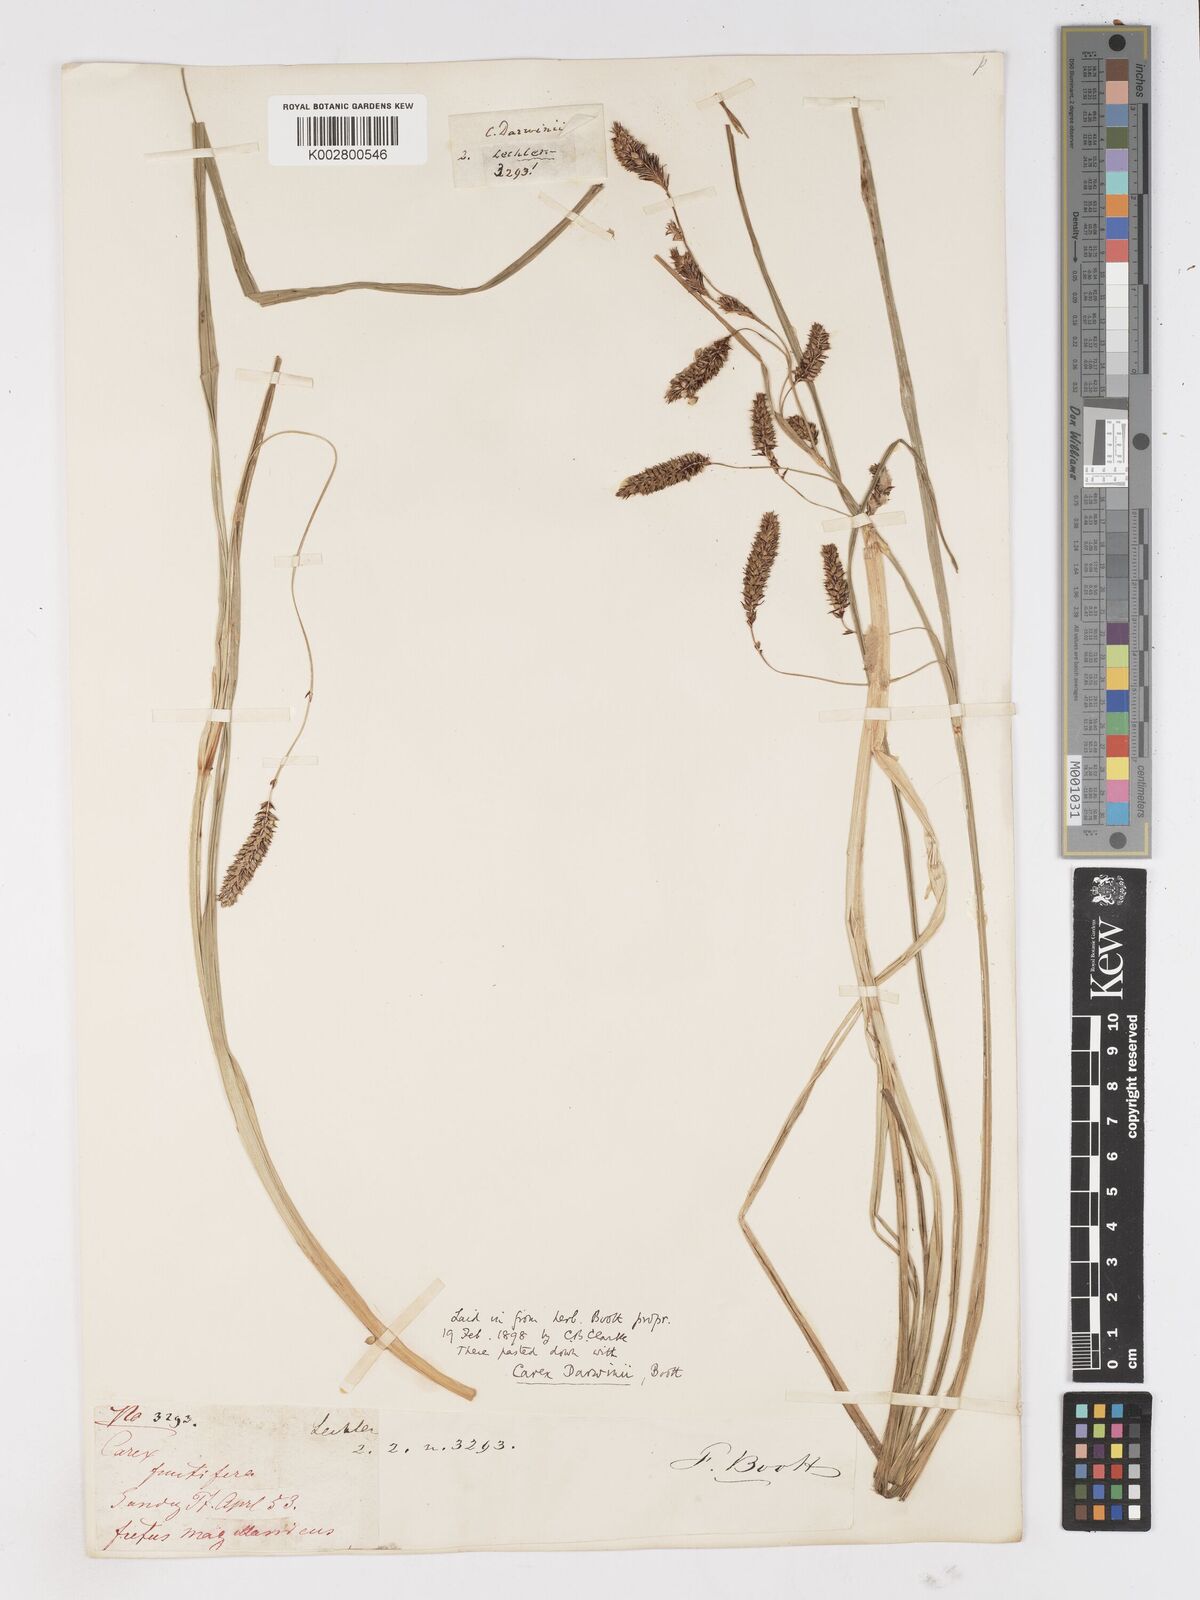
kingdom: Plantae
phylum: Tracheophyta
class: Liliopsida
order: Poales
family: Cyperaceae
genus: Carex
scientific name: Carex darwinii
